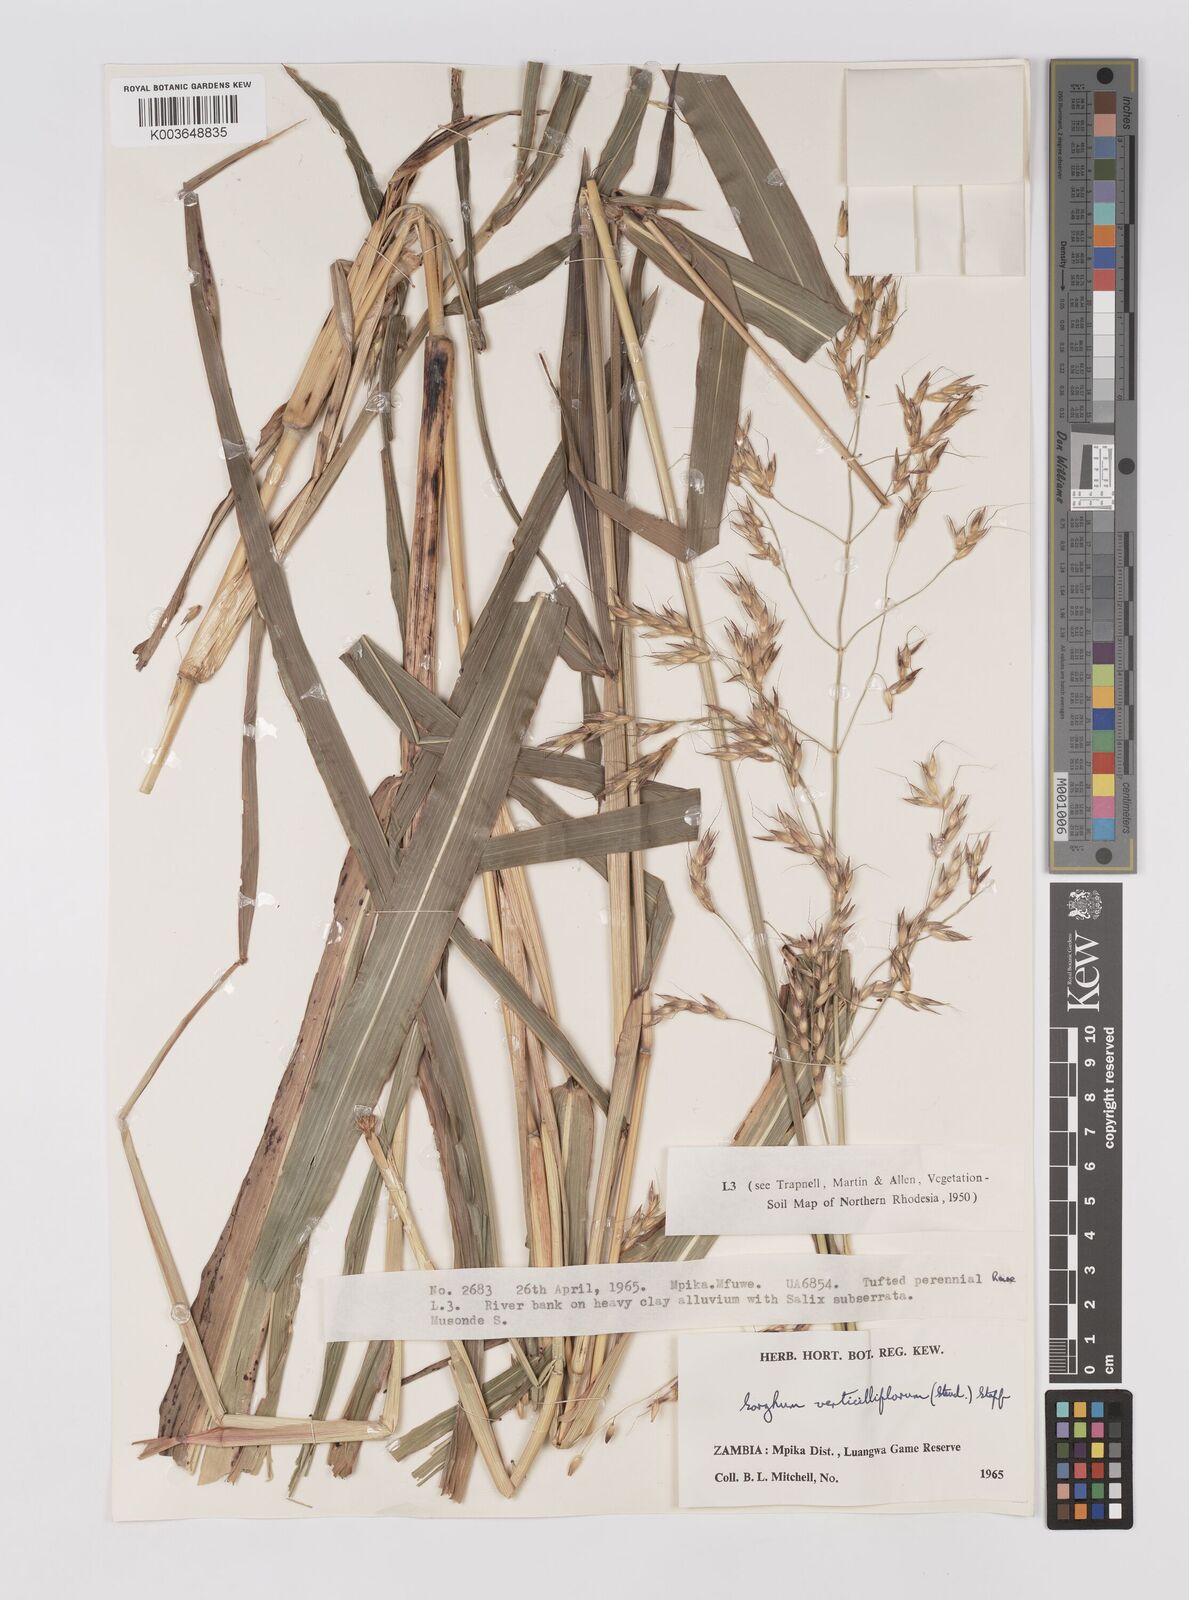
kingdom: Plantae
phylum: Tracheophyta
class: Liliopsida
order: Poales
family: Poaceae
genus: Sorghum
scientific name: Sorghum arundinaceum
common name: Sorghum
